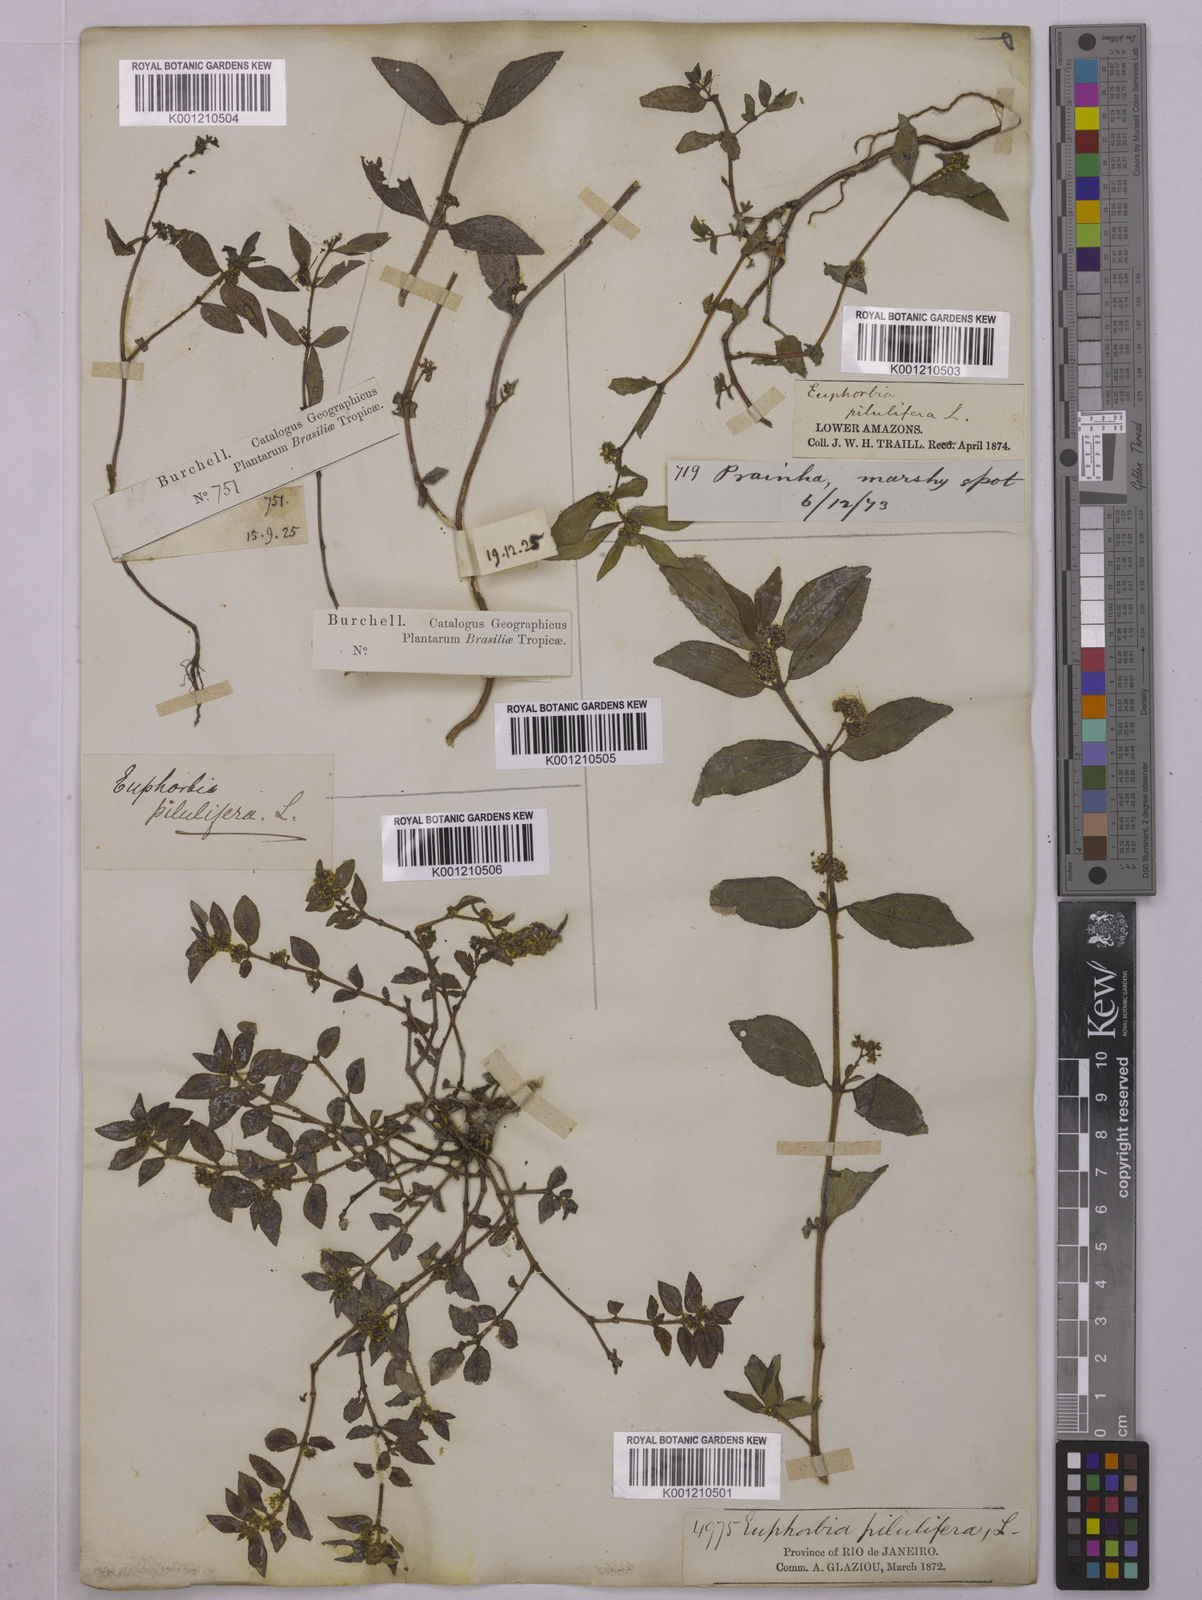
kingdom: Plantae
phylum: Tracheophyta
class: Magnoliopsida
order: Malpighiales
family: Euphorbiaceae
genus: Euphorbia
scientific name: Euphorbia hirta
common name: Pillpod sandmat
